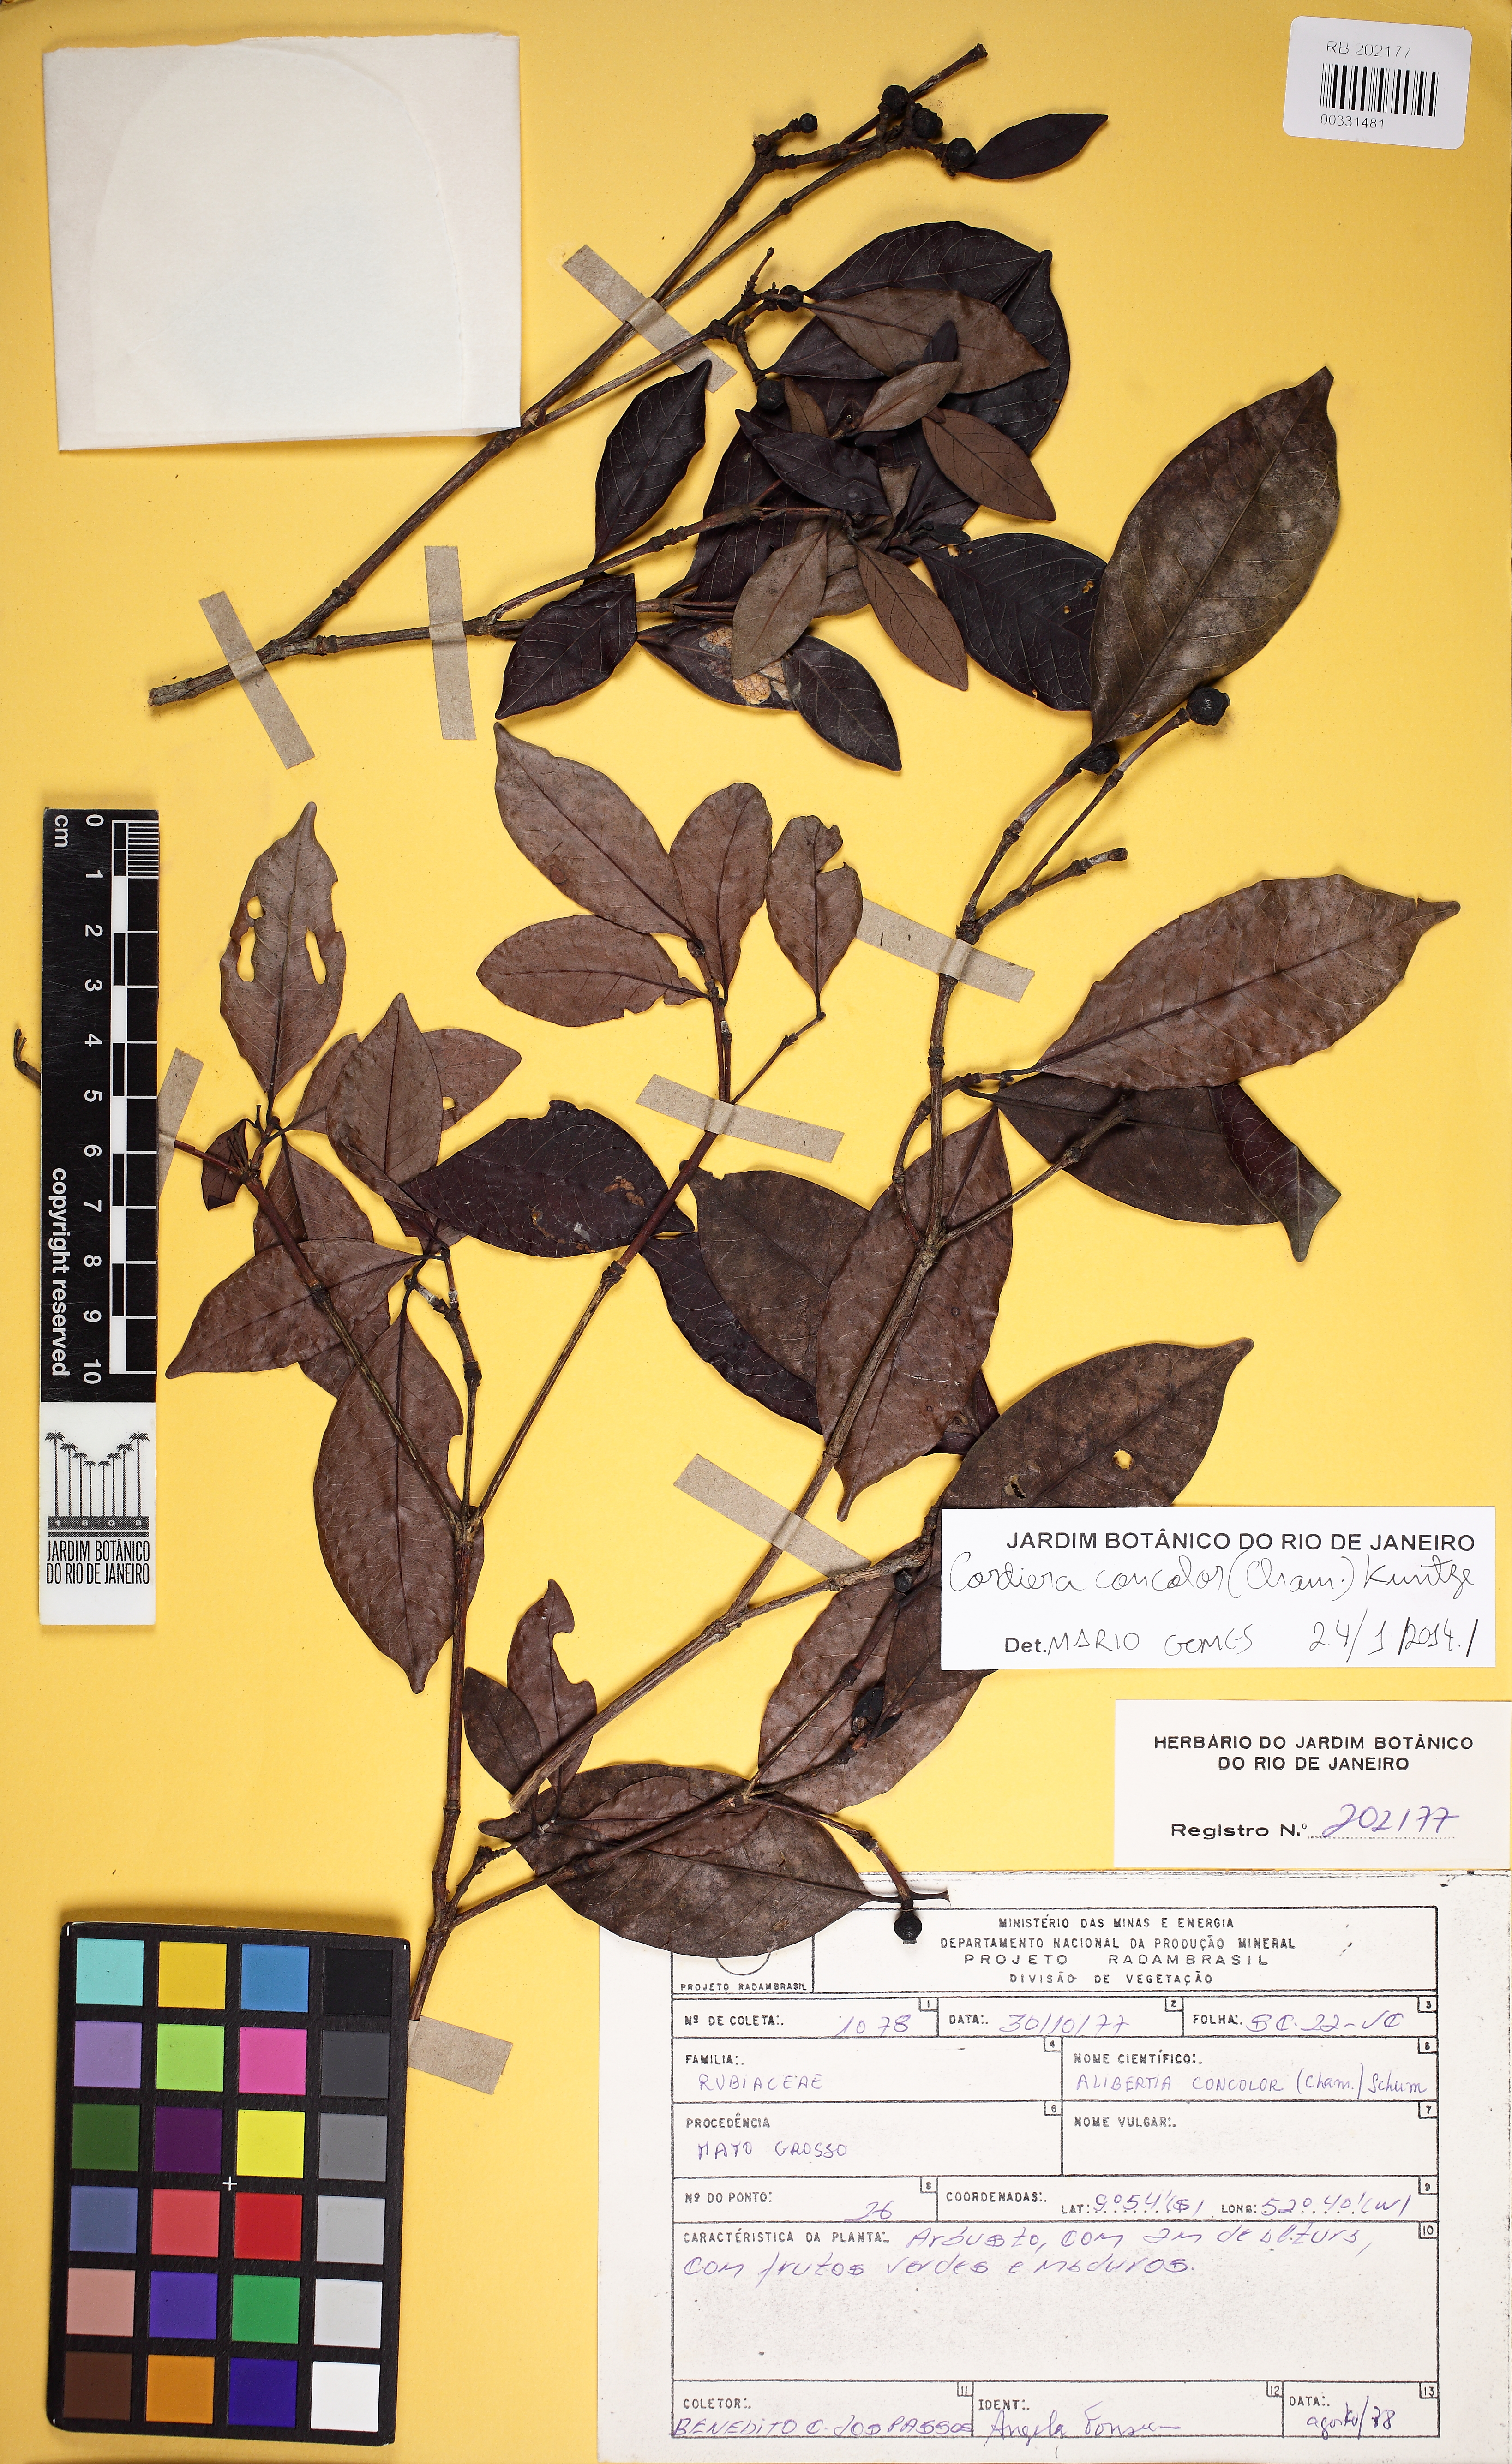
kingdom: Plantae
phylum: Tracheophyta
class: Magnoliopsida
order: Gentianales
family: Rubiaceae
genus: Cordiera
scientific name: Cordiera concolor
